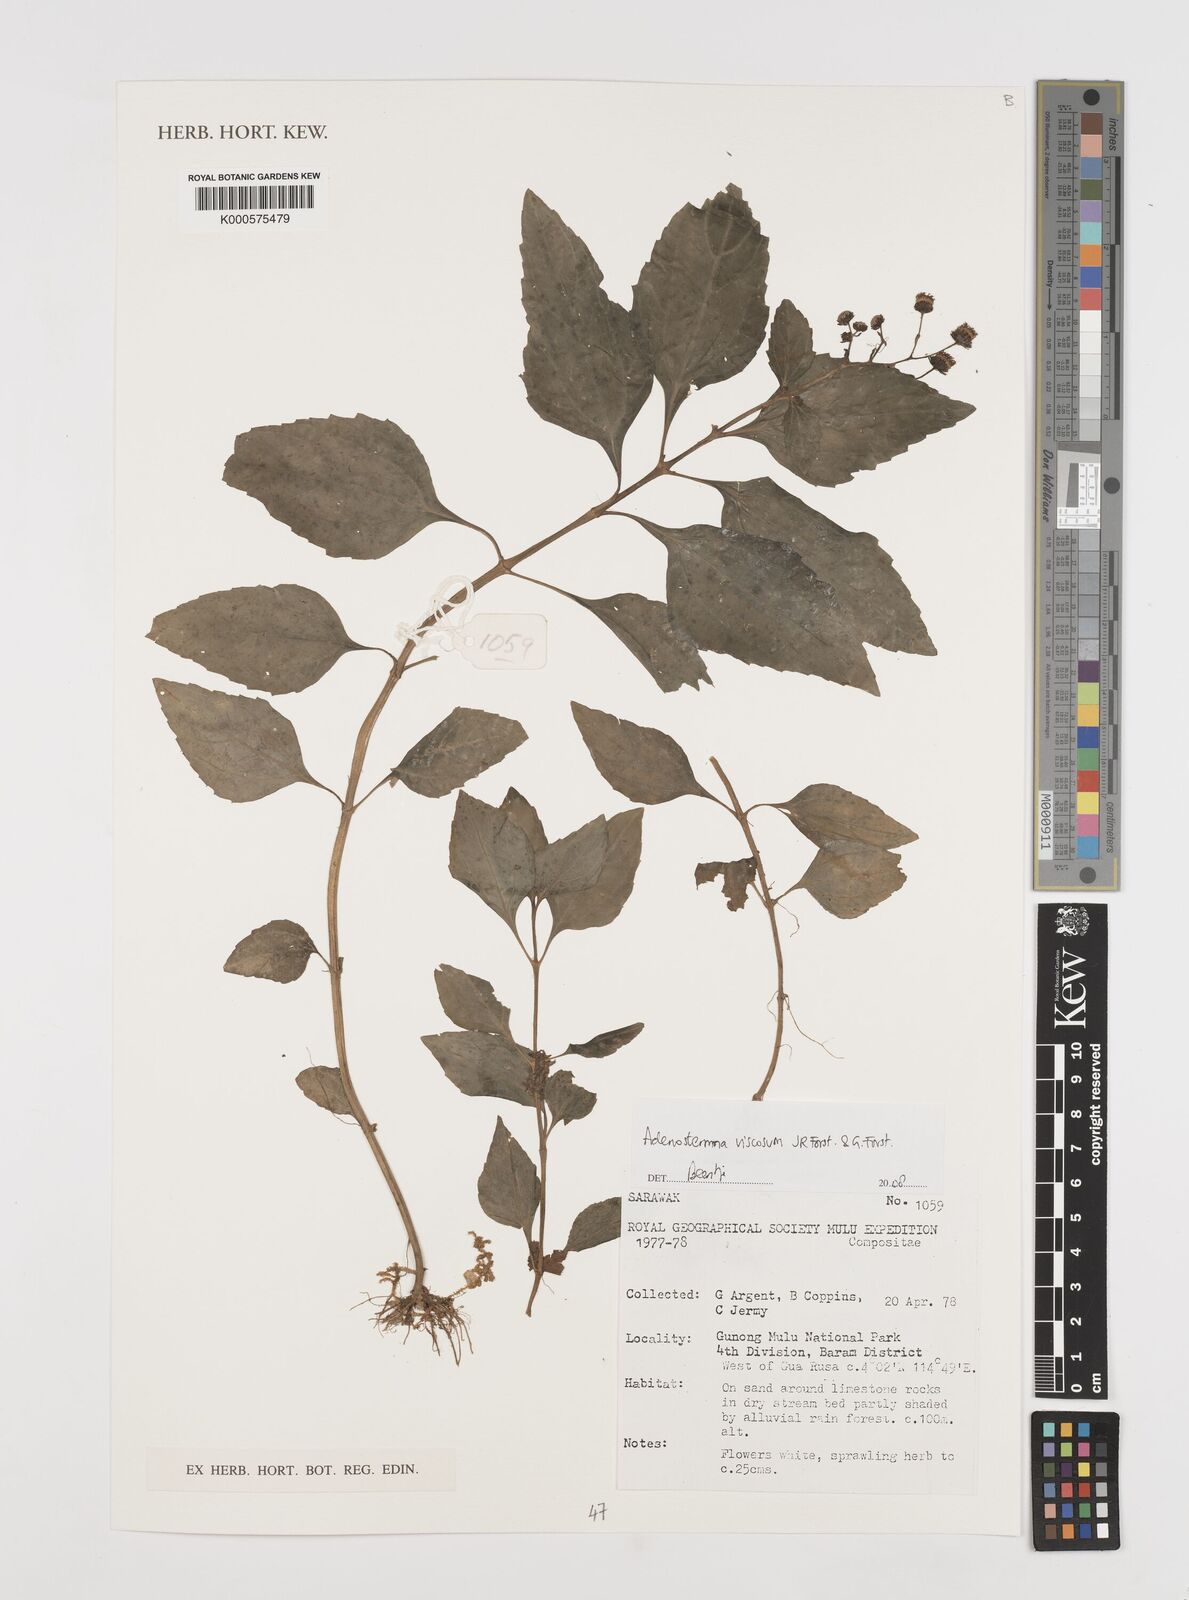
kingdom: Plantae
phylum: Tracheophyta
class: Magnoliopsida
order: Asterales
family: Asteraceae
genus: Adenostemma
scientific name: Adenostemma viscosum
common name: Dungweed
